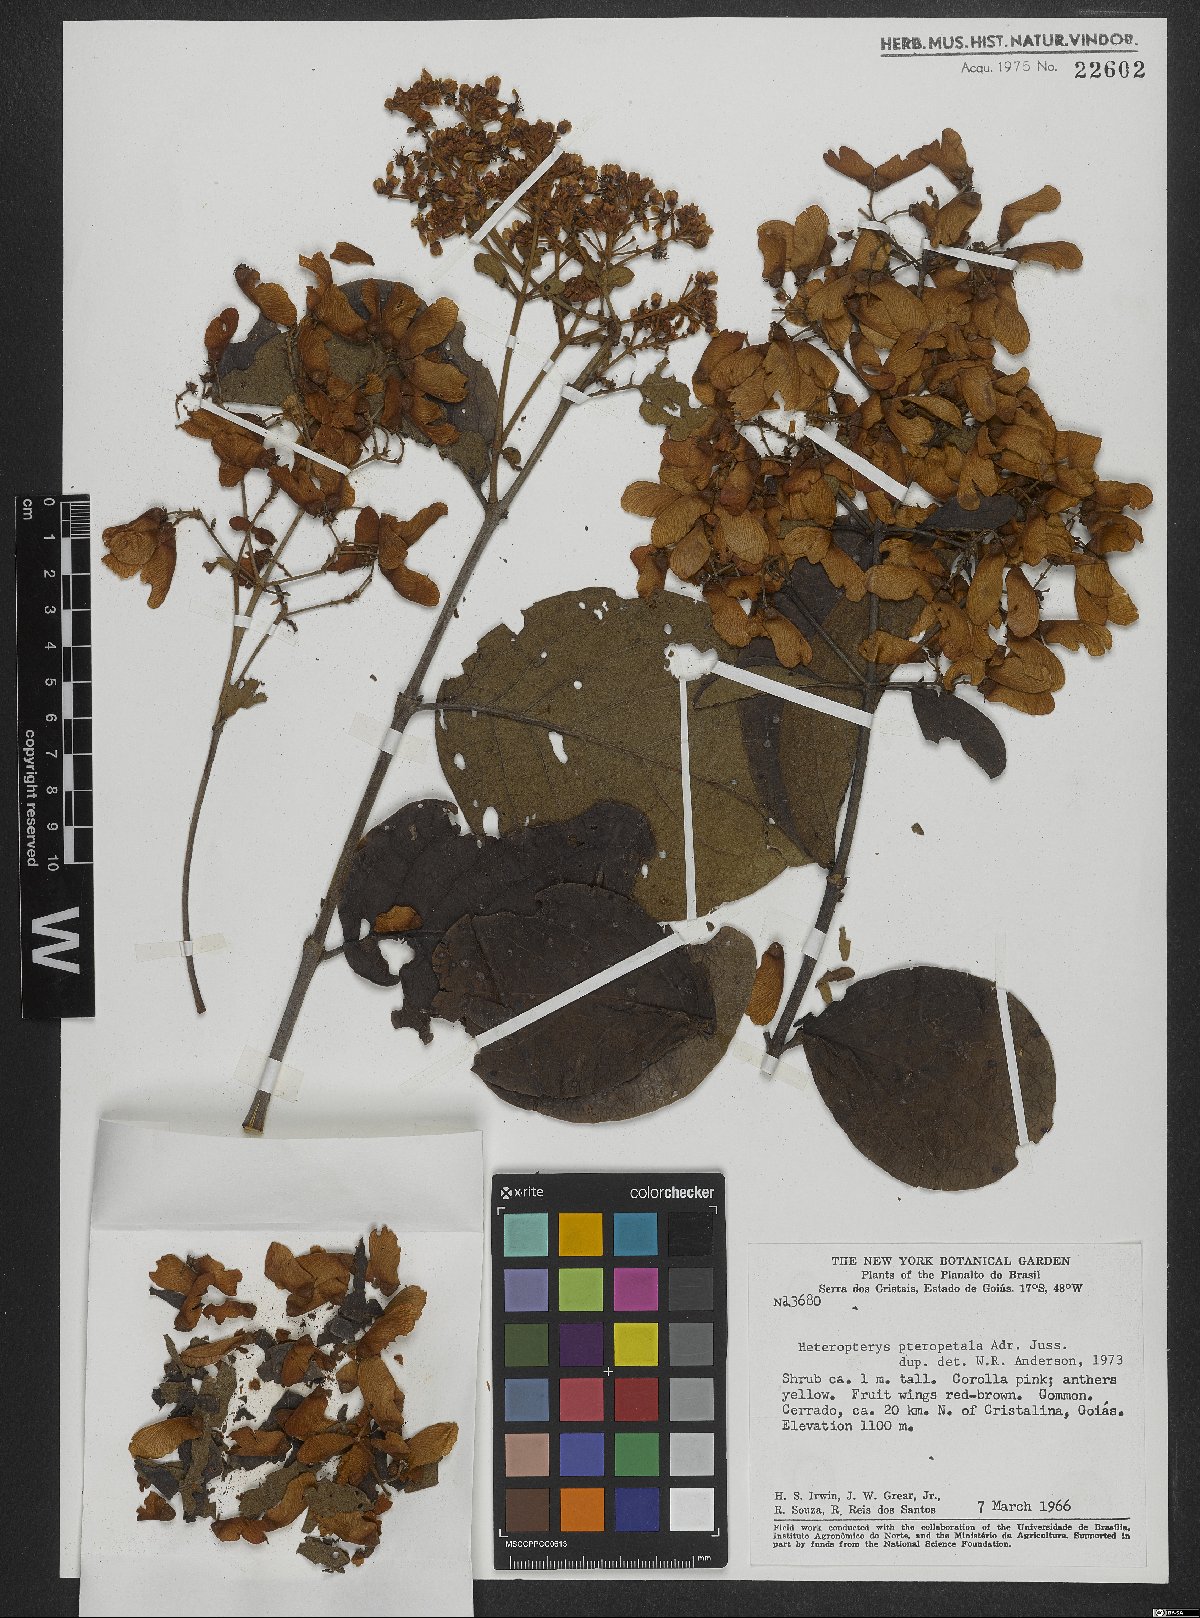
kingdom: Plantae
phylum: Tracheophyta
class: Magnoliopsida
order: Malpighiales
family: Malpighiaceae
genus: Heteropterys
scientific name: Heteropterys pteropetala
